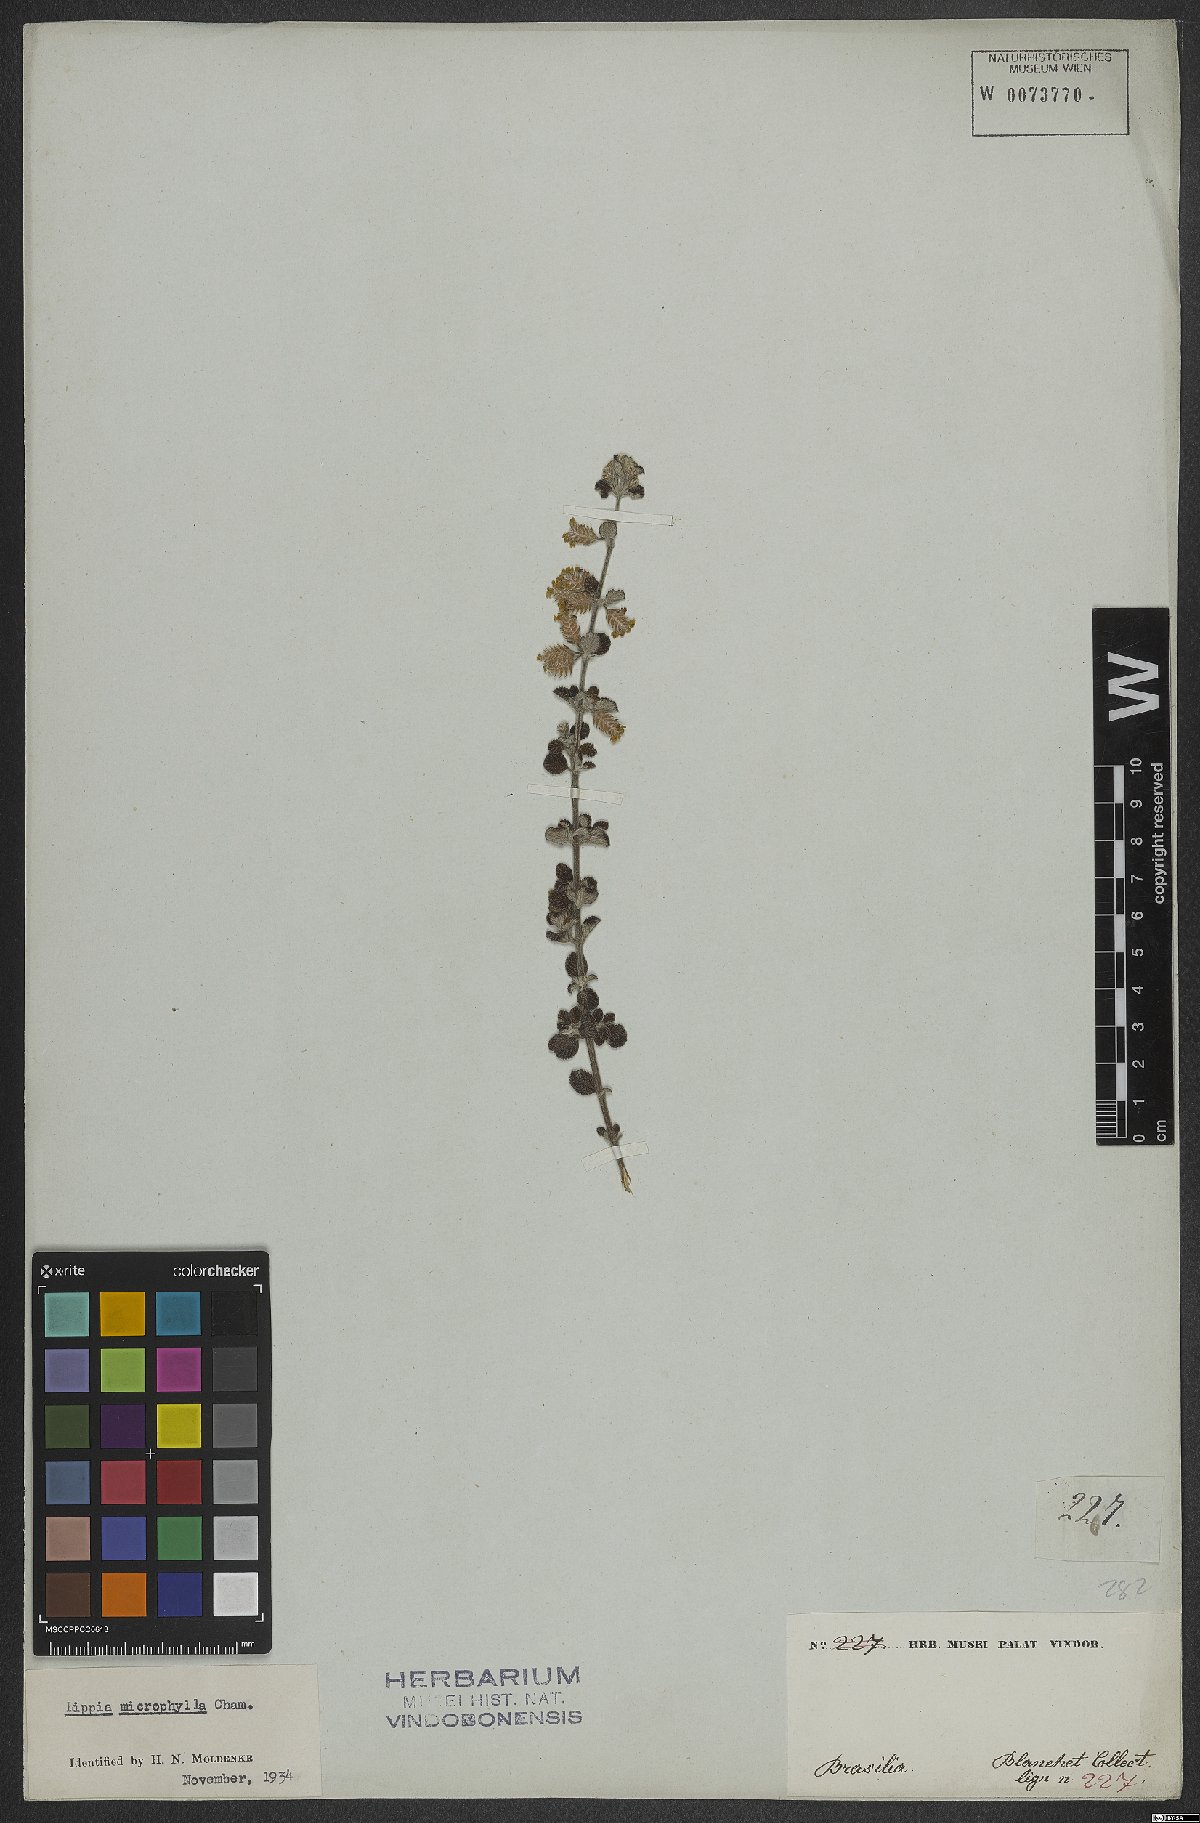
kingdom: Plantae
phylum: Tracheophyta
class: Magnoliopsida
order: Lamiales
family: Verbenaceae
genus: Lippia
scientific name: Lippia origanoides
